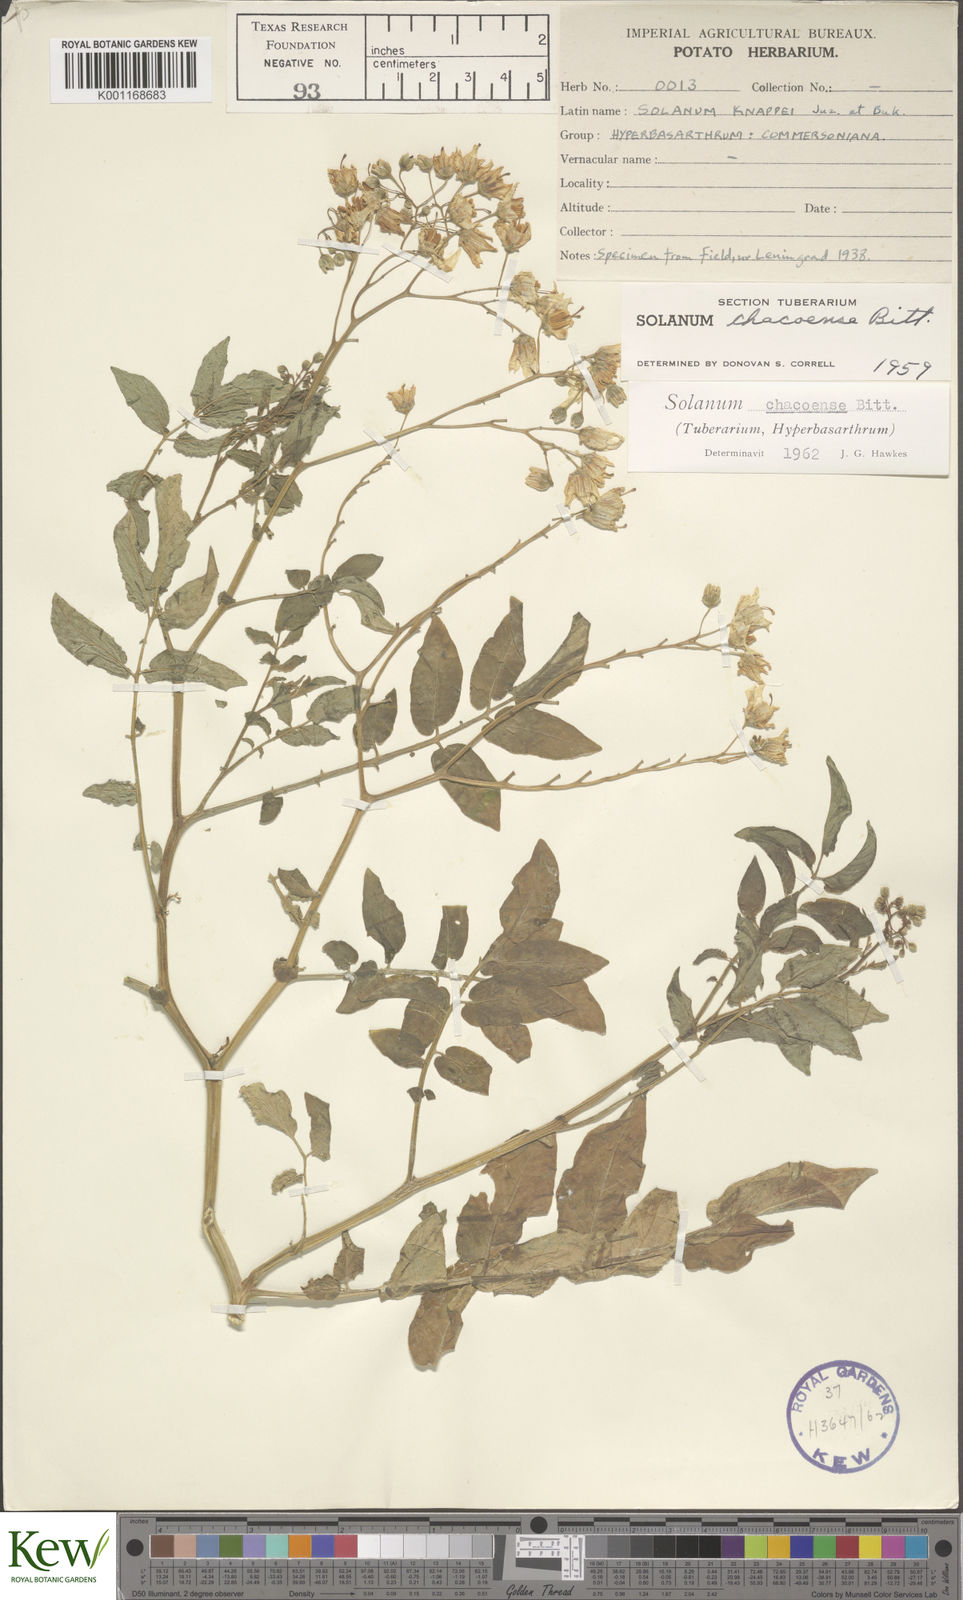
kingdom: Plantae
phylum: Tracheophyta
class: Magnoliopsida
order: Solanales
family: Solanaceae
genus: Solanum
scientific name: Solanum chacoense
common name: Chaco potato
